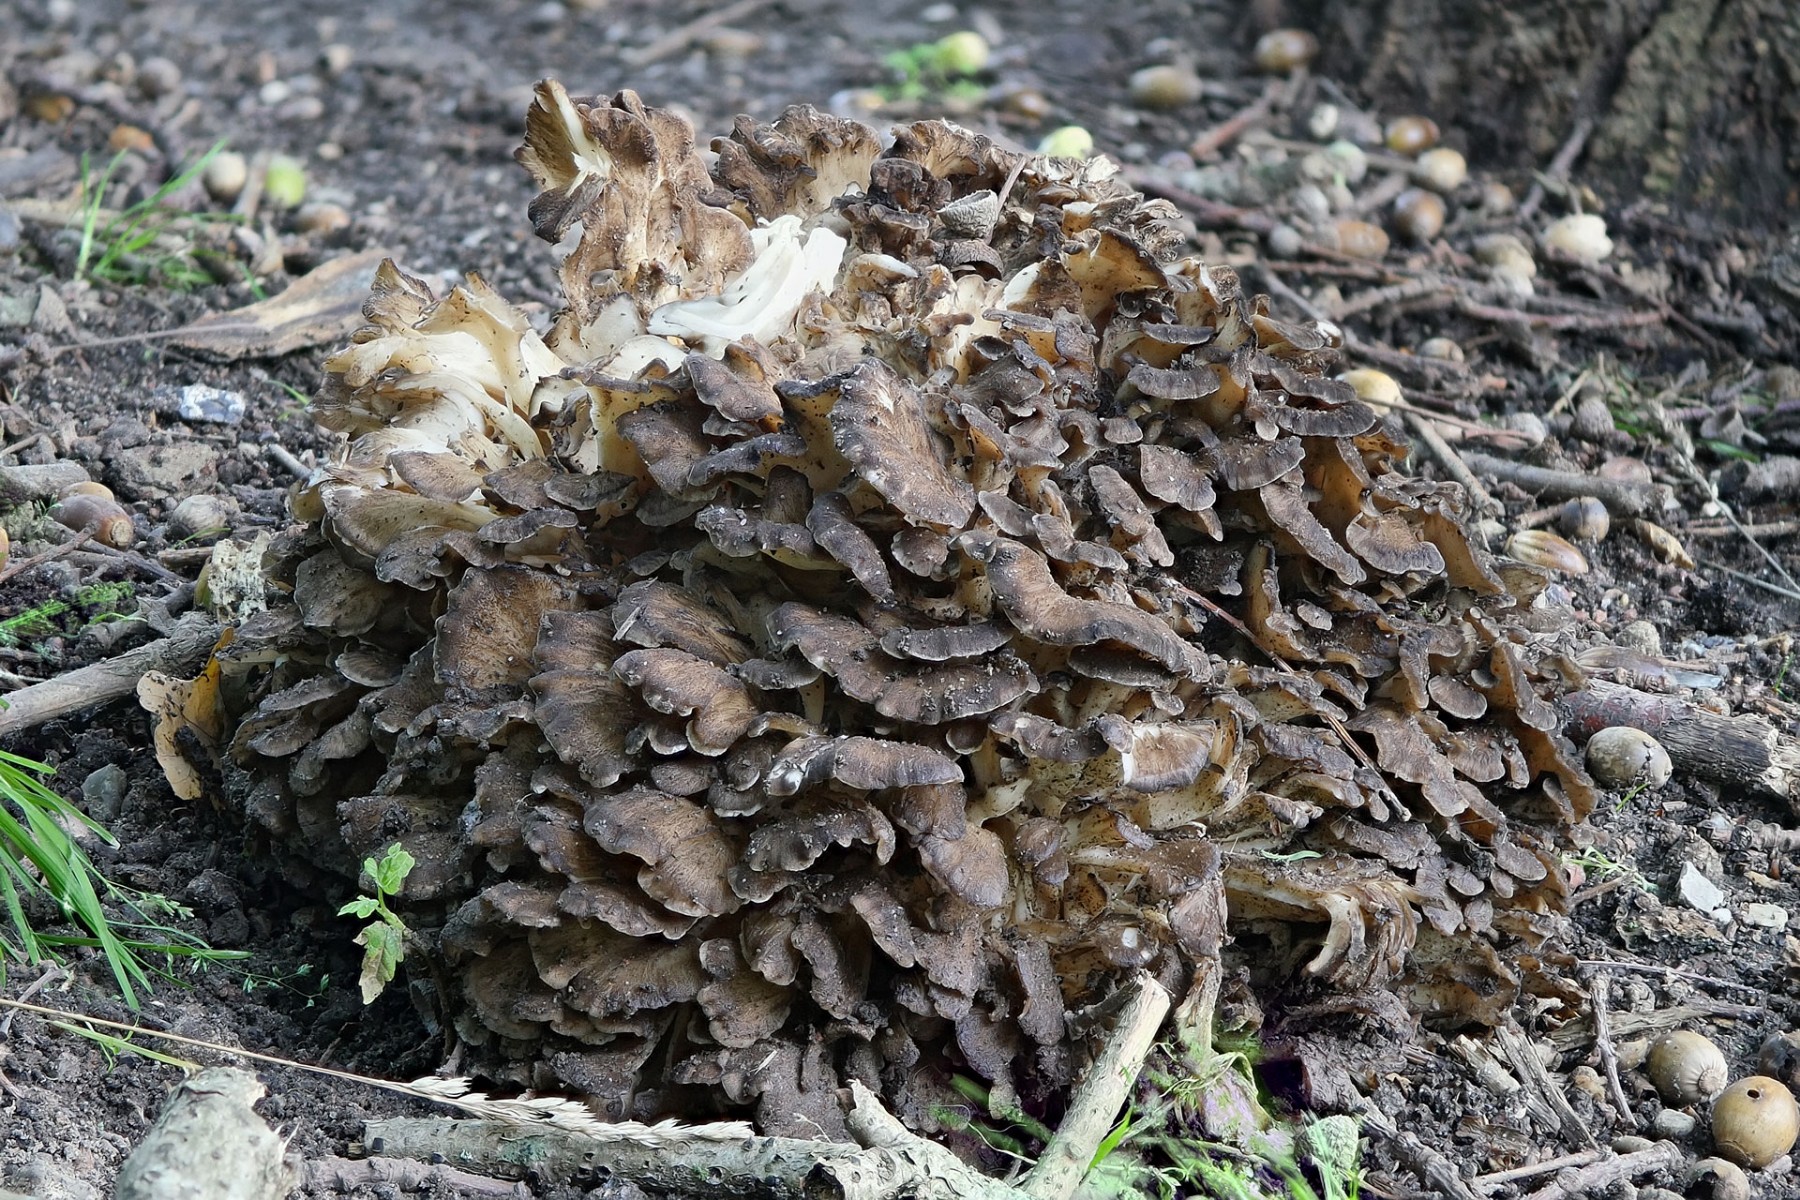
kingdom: Fungi
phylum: Basidiomycota
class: Agaricomycetes
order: Polyporales
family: Grifolaceae
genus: Grifola
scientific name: Grifola frondosa
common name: tueporesvamp
